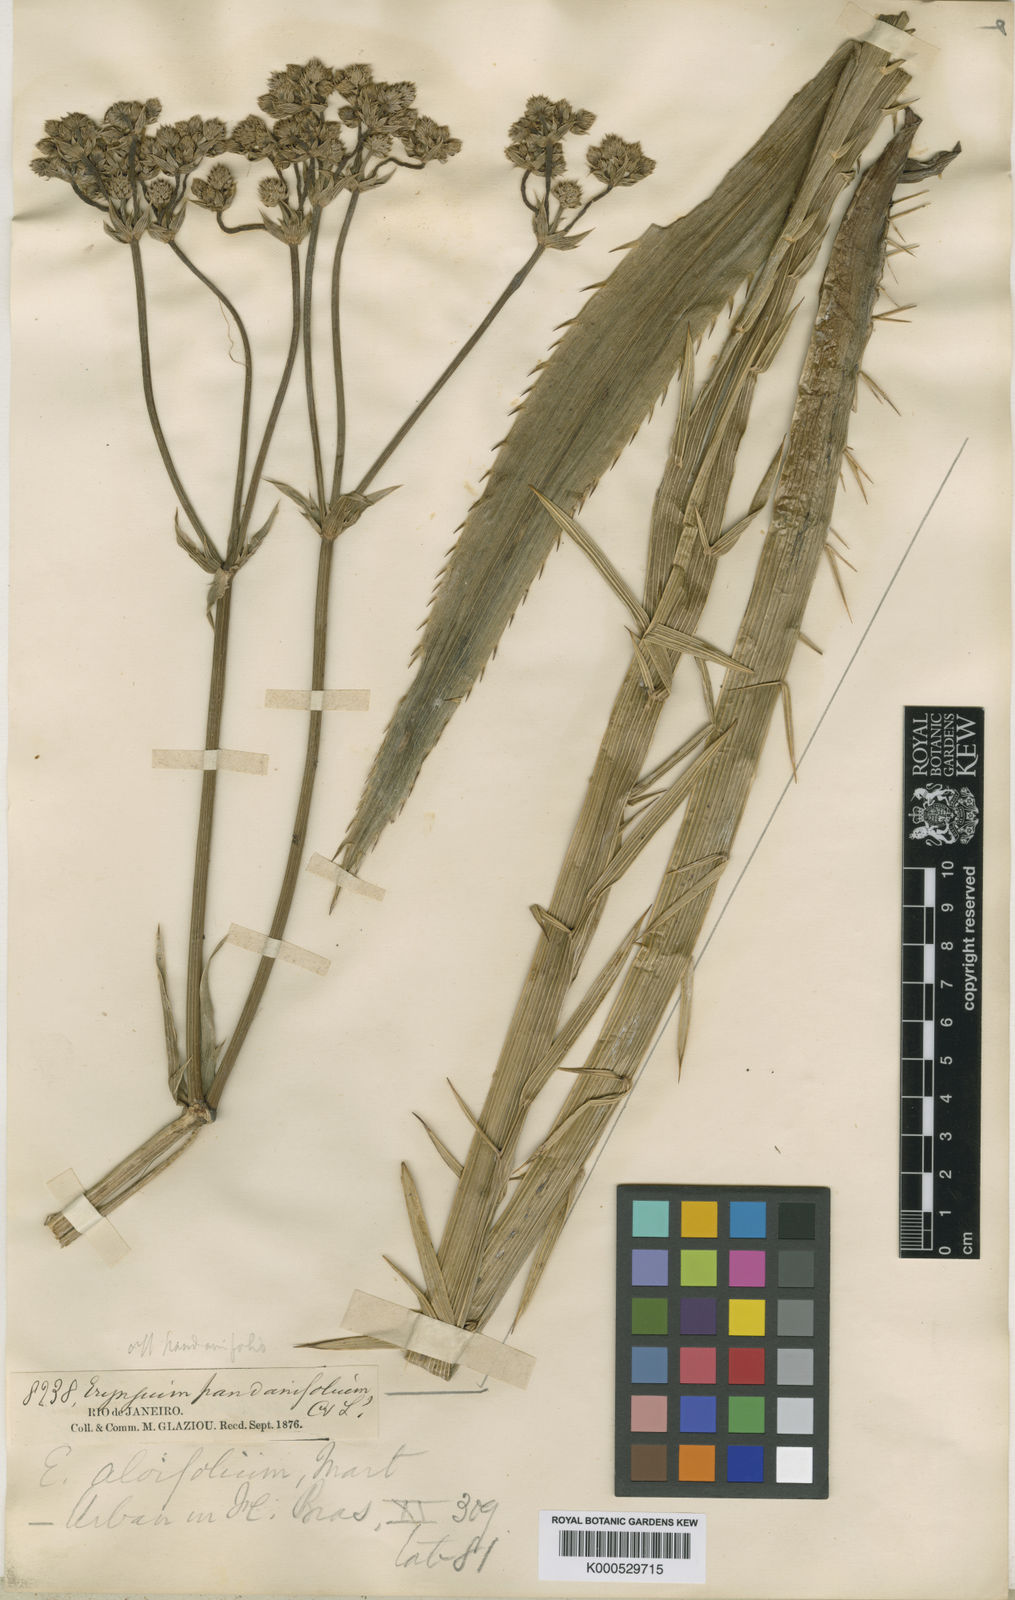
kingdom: Plantae
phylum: Tracheophyta
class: Magnoliopsida
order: Apiales
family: Apiaceae
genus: Eryngium
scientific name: Eryngium aloifolium
